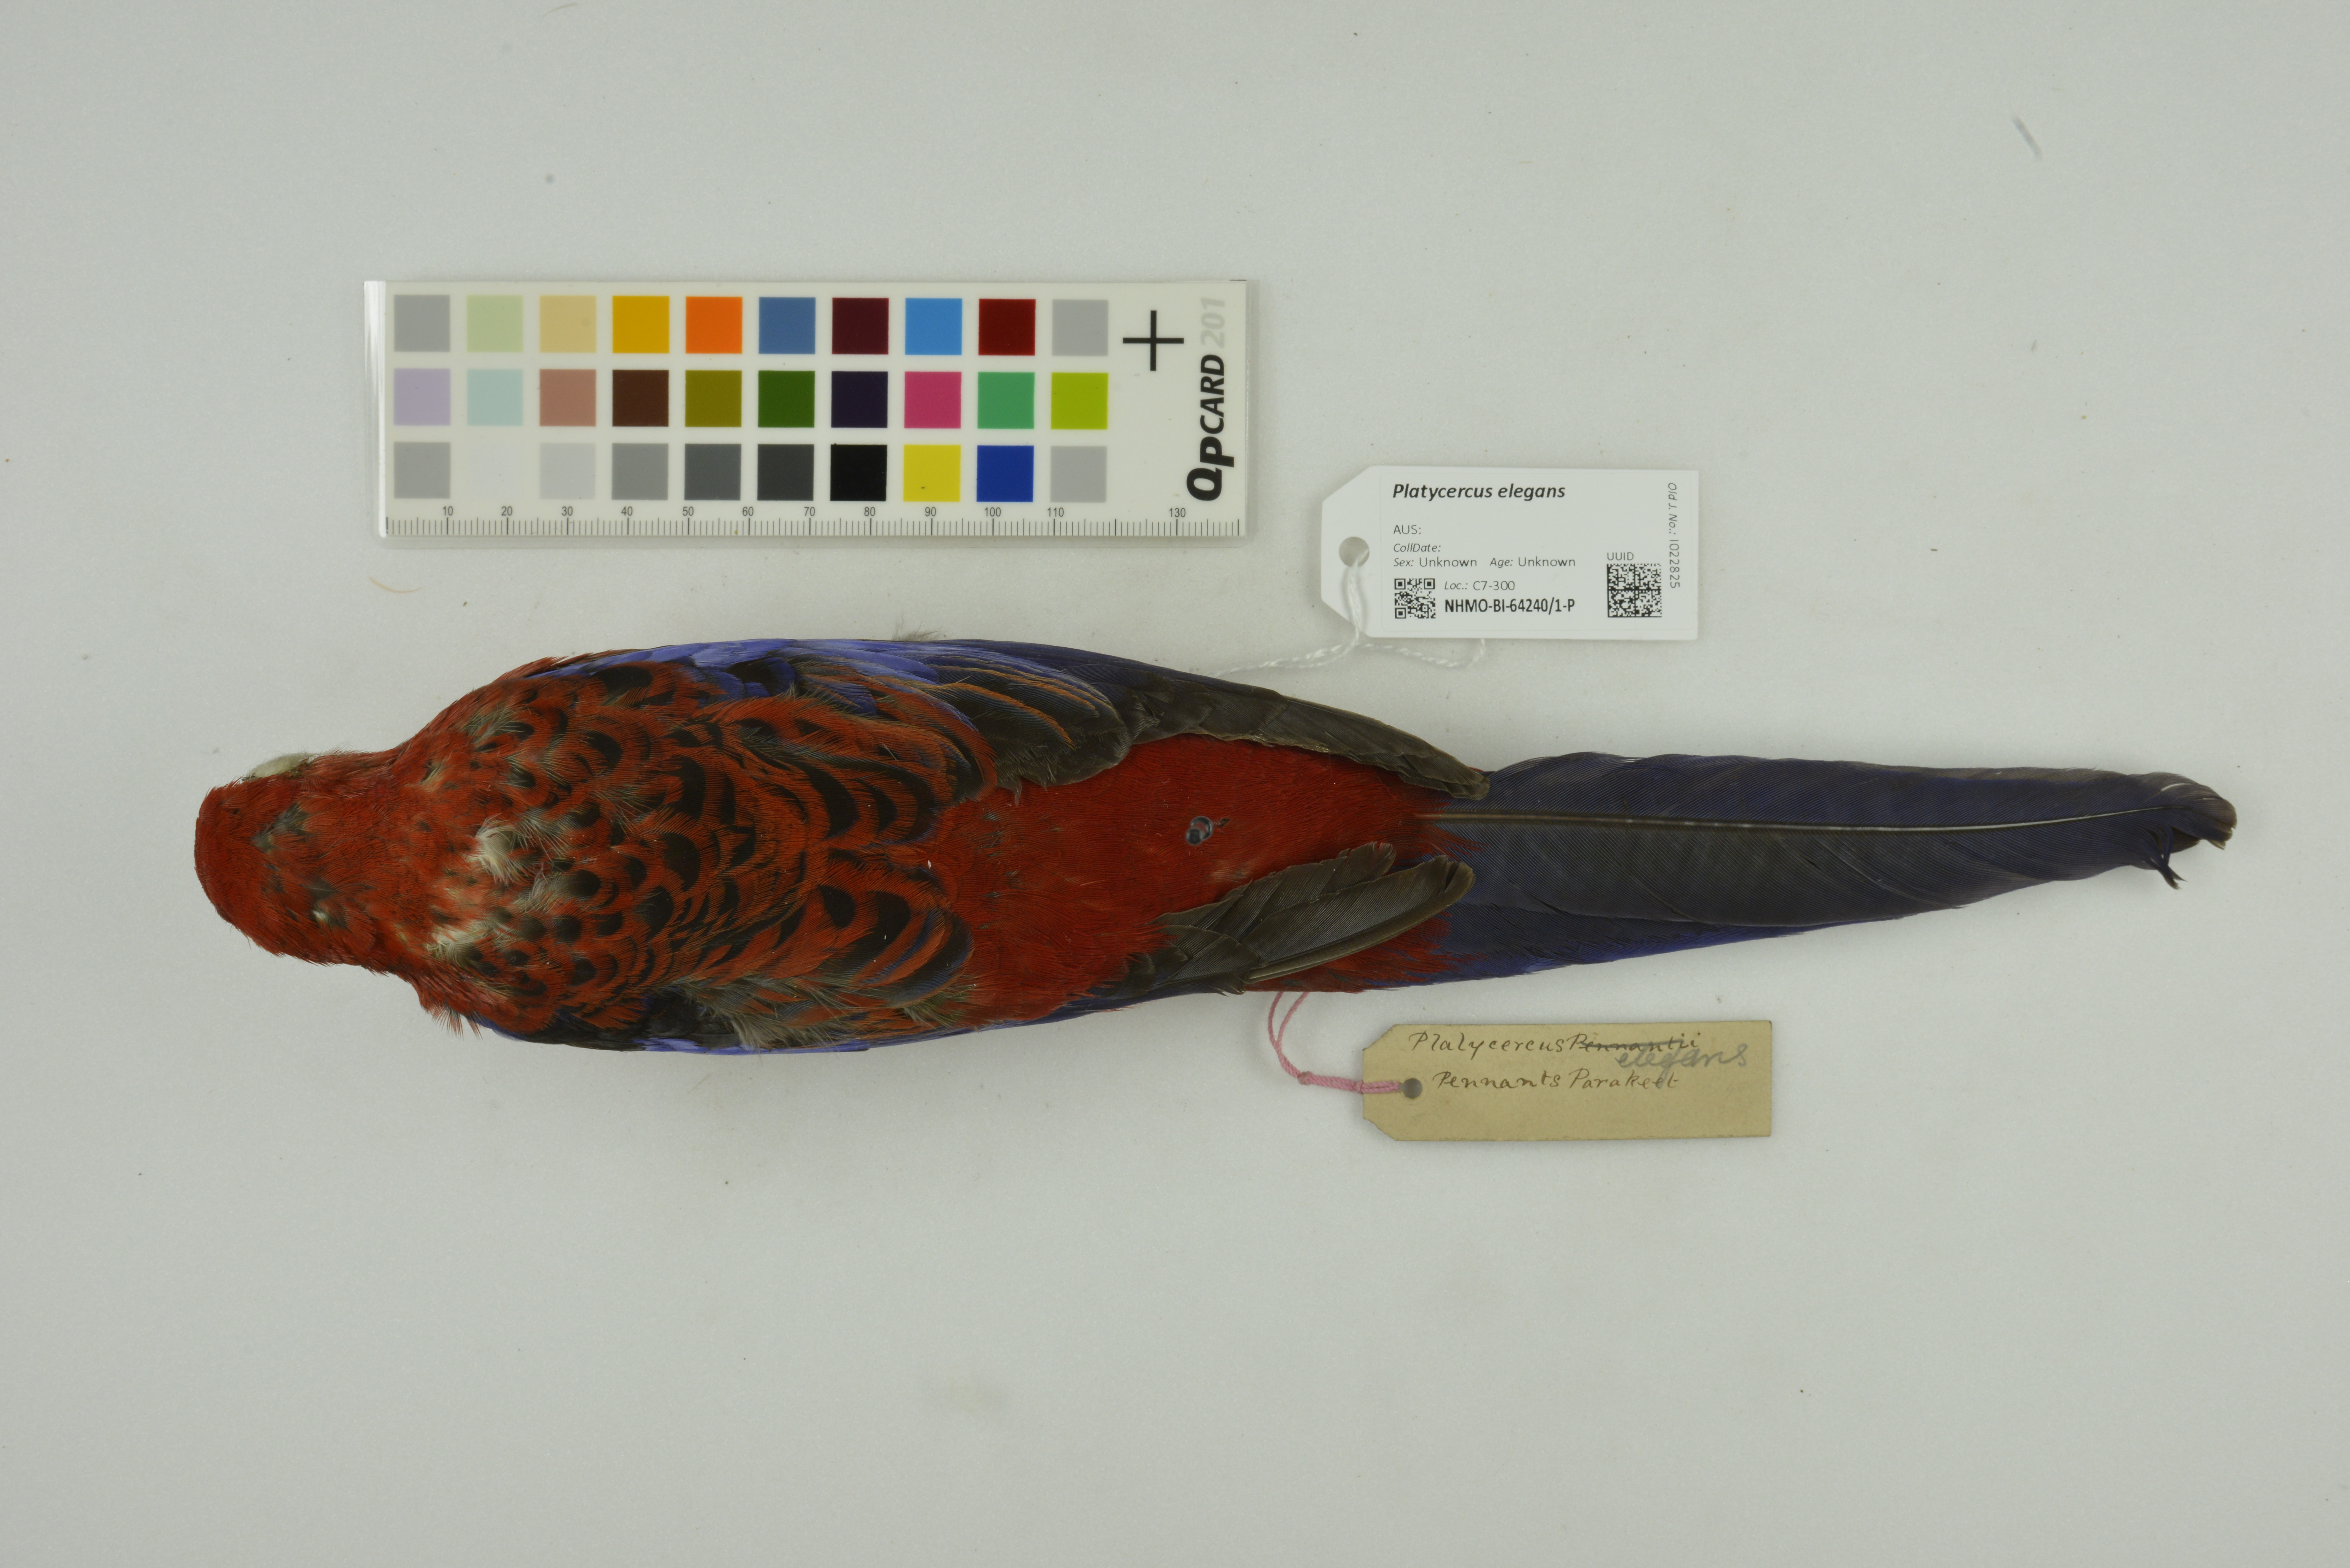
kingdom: Animalia
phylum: Chordata
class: Aves
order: Psittaciformes
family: Psittacidae
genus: Platycercus
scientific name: Platycercus elegans
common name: Crimson rosella
